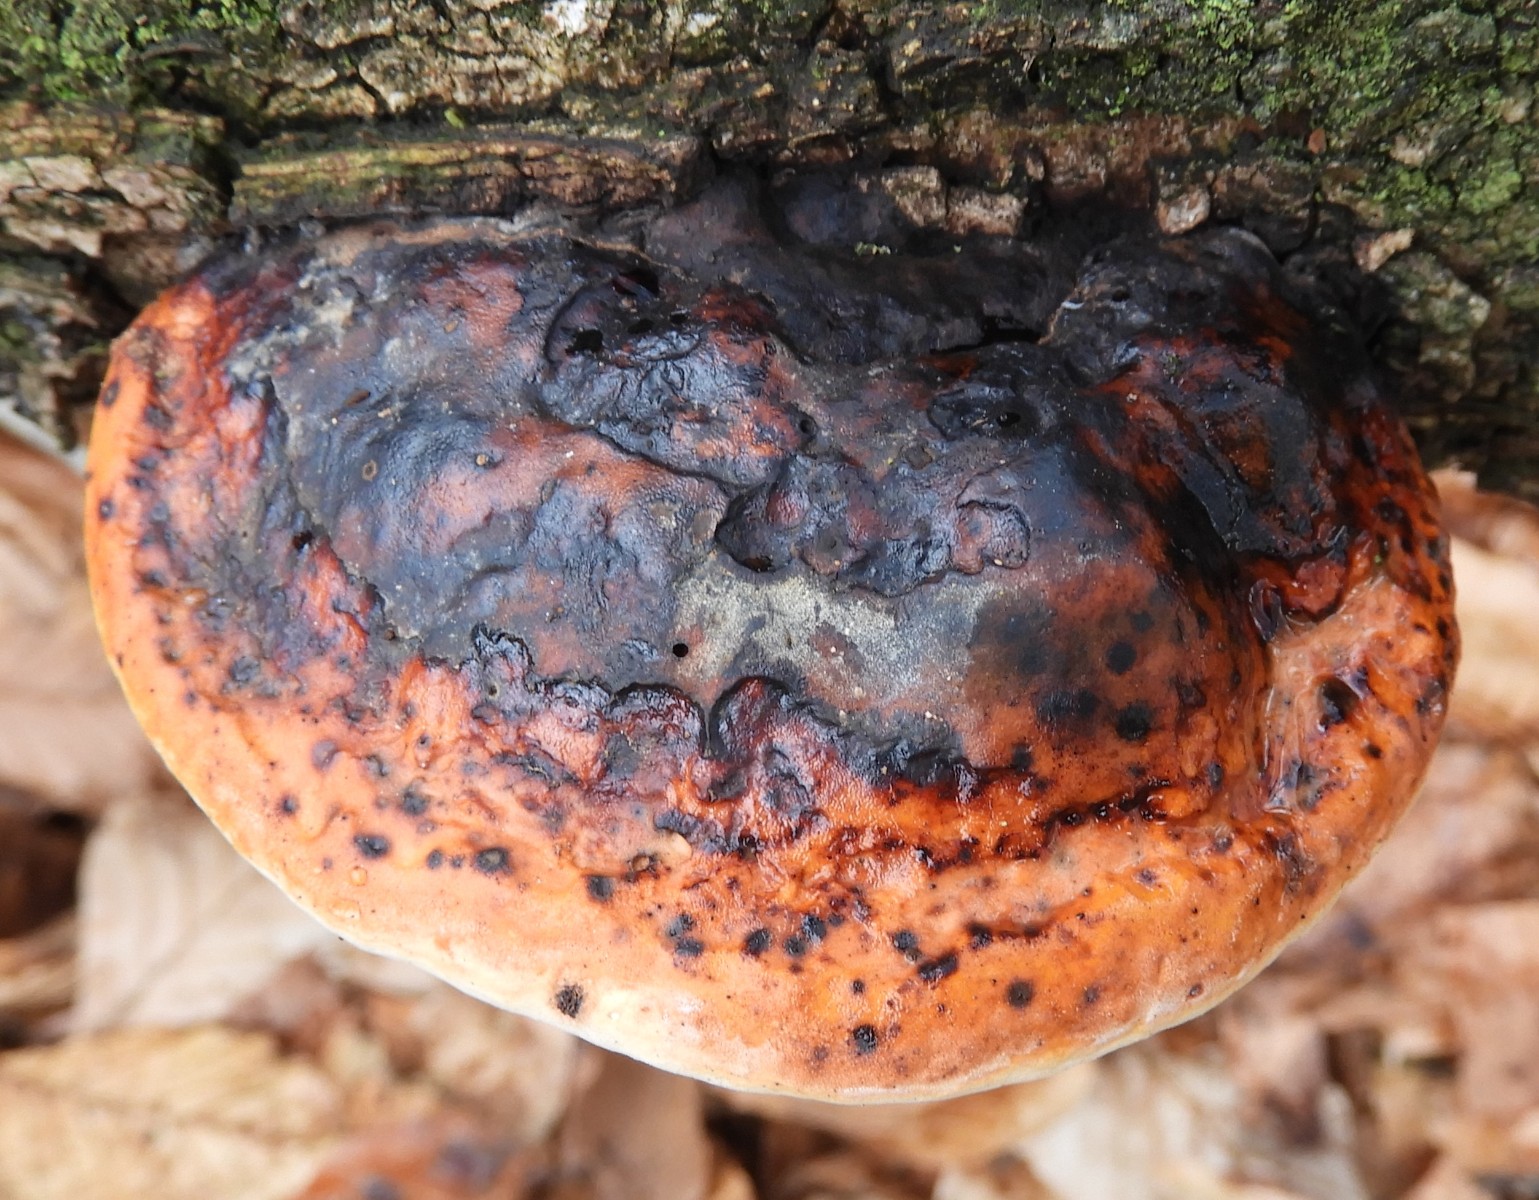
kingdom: Fungi
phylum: Basidiomycota
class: Agaricomycetes
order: Polyporales
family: Fomitopsidaceae
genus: Fomitopsis
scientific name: Fomitopsis pinicola
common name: randbæltet hovporesvamp
